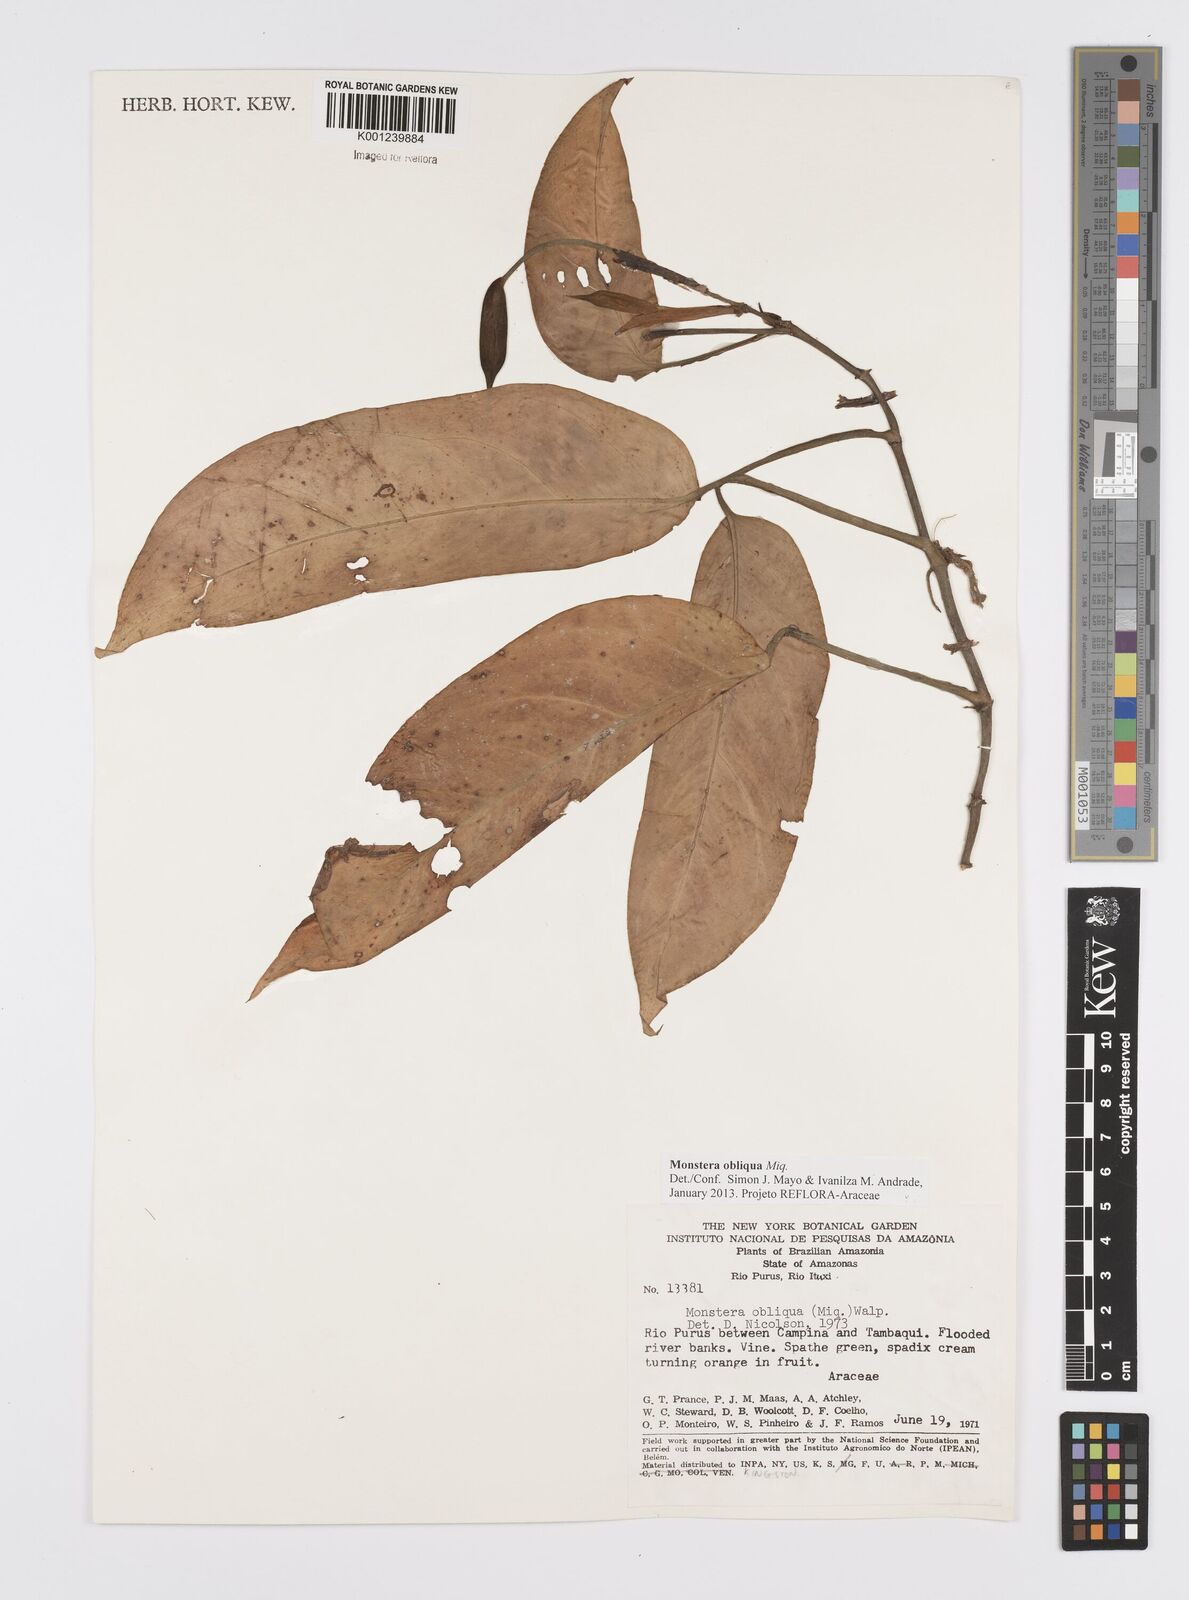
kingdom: Plantae
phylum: Tracheophyta
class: Liliopsida
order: Alismatales
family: Araceae
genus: Monstera
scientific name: Monstera obliqua
